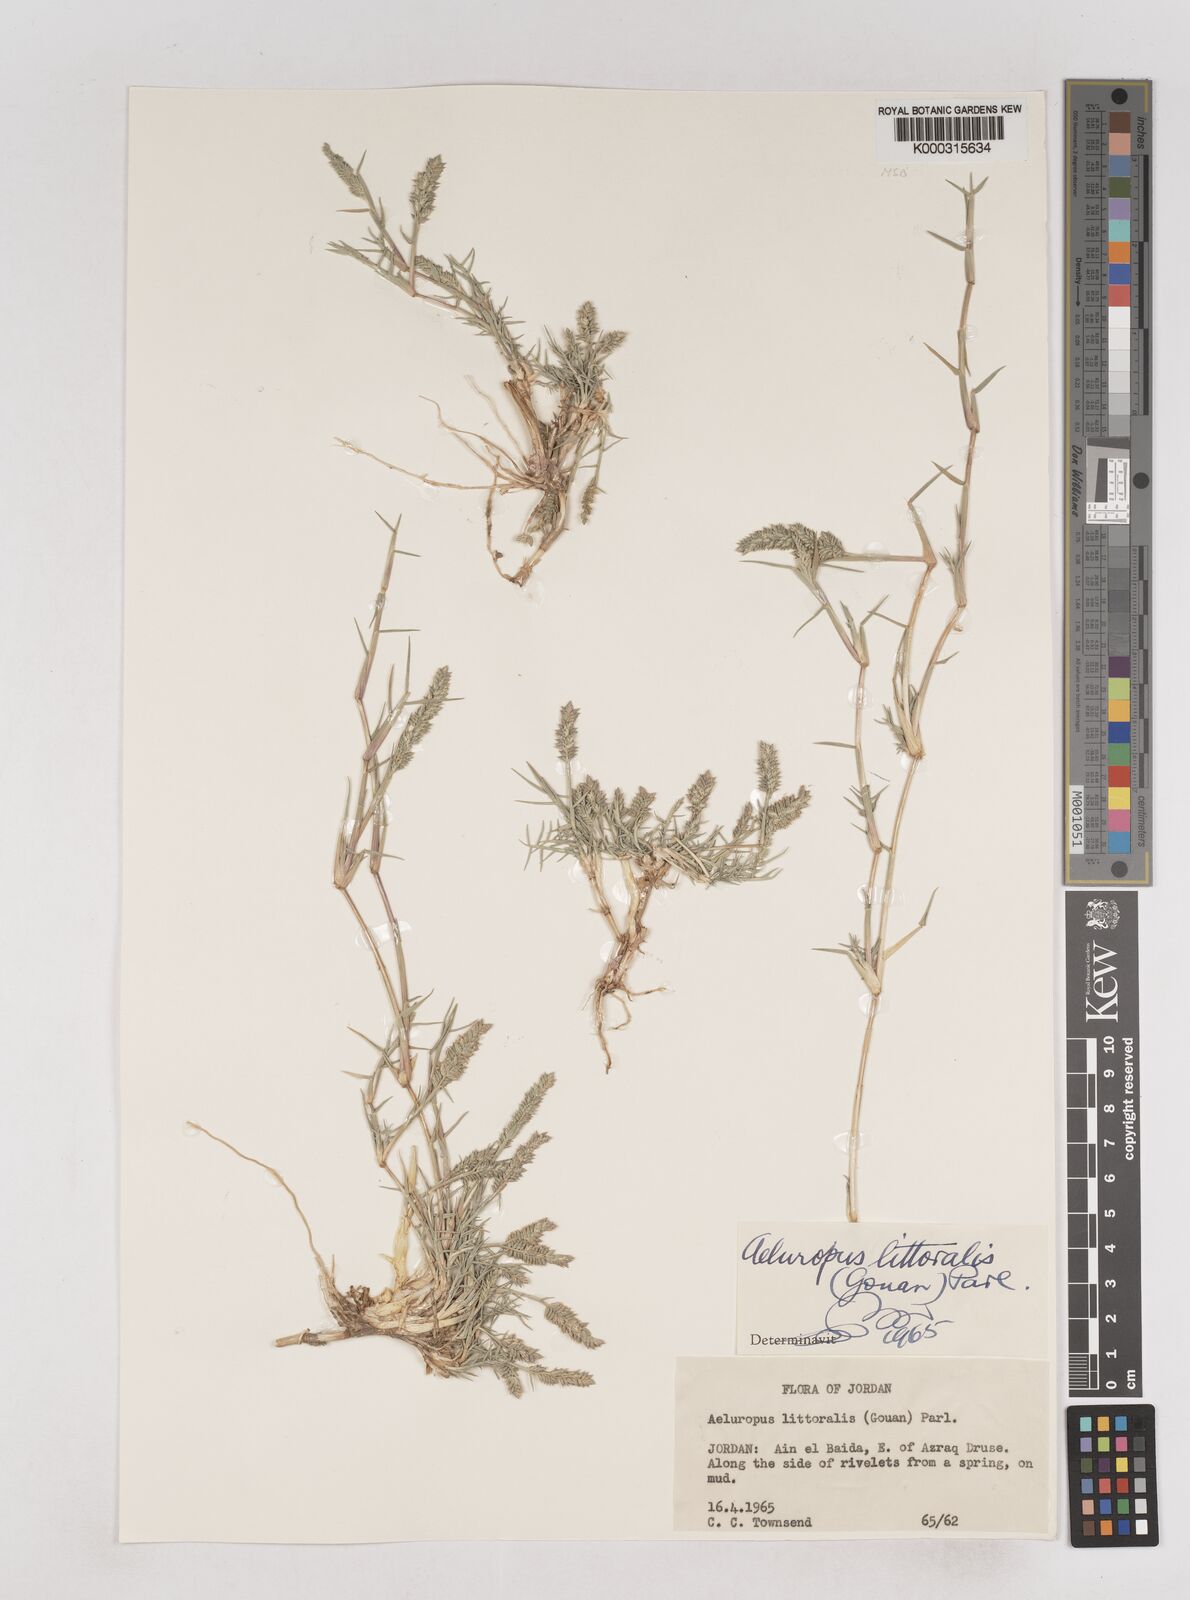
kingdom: Plantae
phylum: Tracheophyta
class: Liliopsida
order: Poales
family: Poaceae
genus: Aeluropus
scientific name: Aeluropus littoralis
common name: Indian walnut
